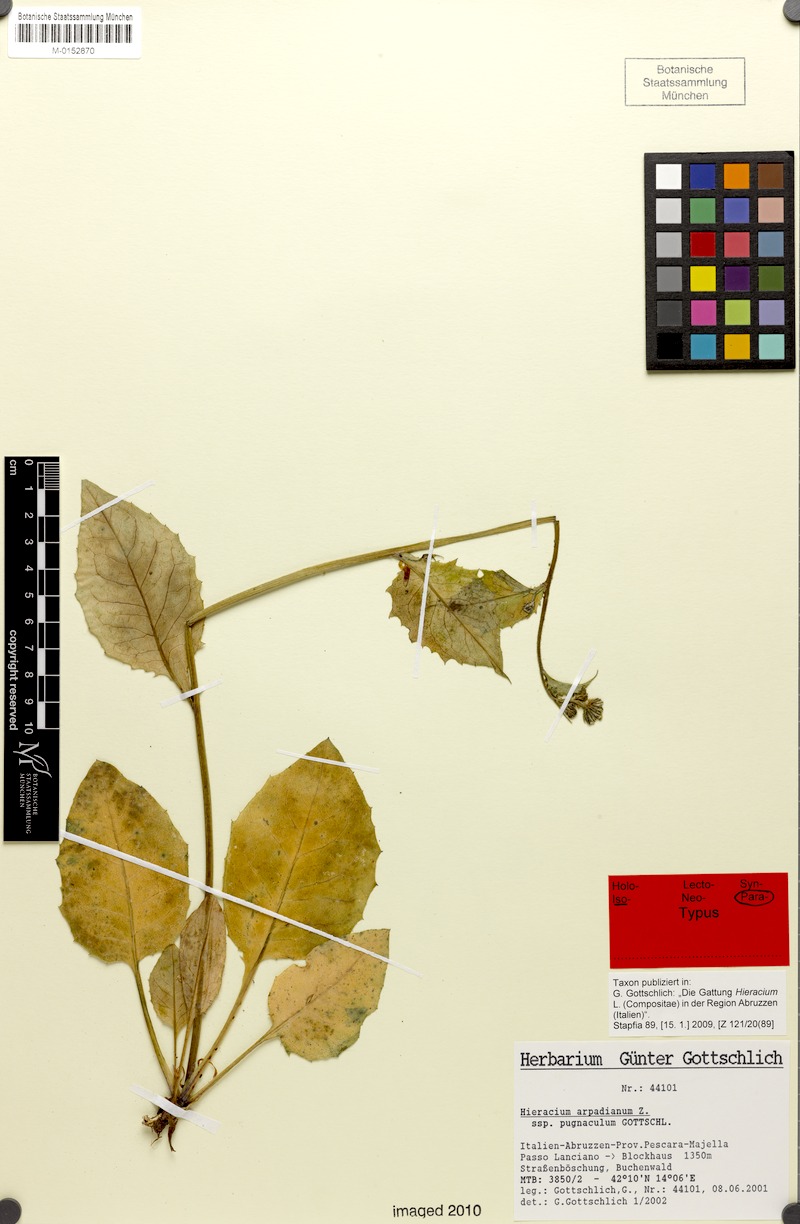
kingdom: Plantae
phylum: Tracheophyta
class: Magnoliopsida
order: Asterales
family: Asteraceae
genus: Hieracium
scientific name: Hieracium arpadianum
